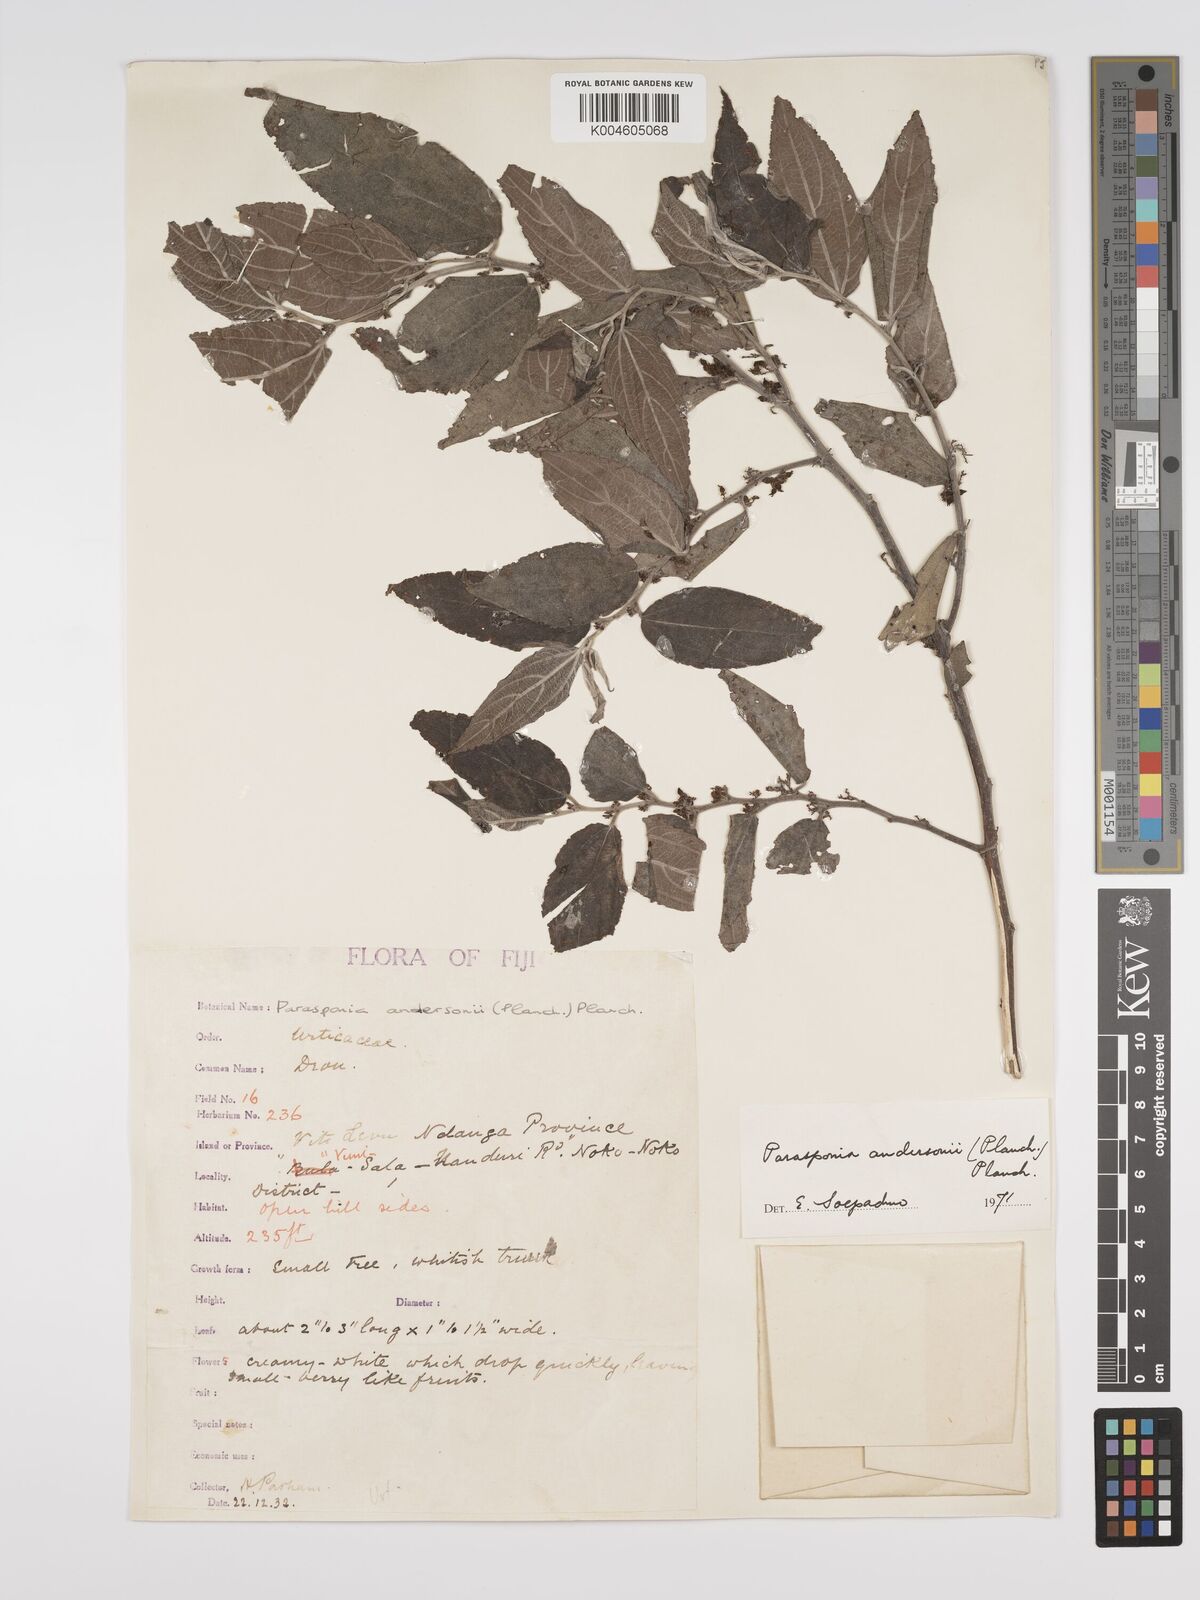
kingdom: Plantae
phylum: Tracheophyta
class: Magnoliopsida
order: Rosales
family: Cannabaceae
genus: Trema
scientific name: Trema andersonii
